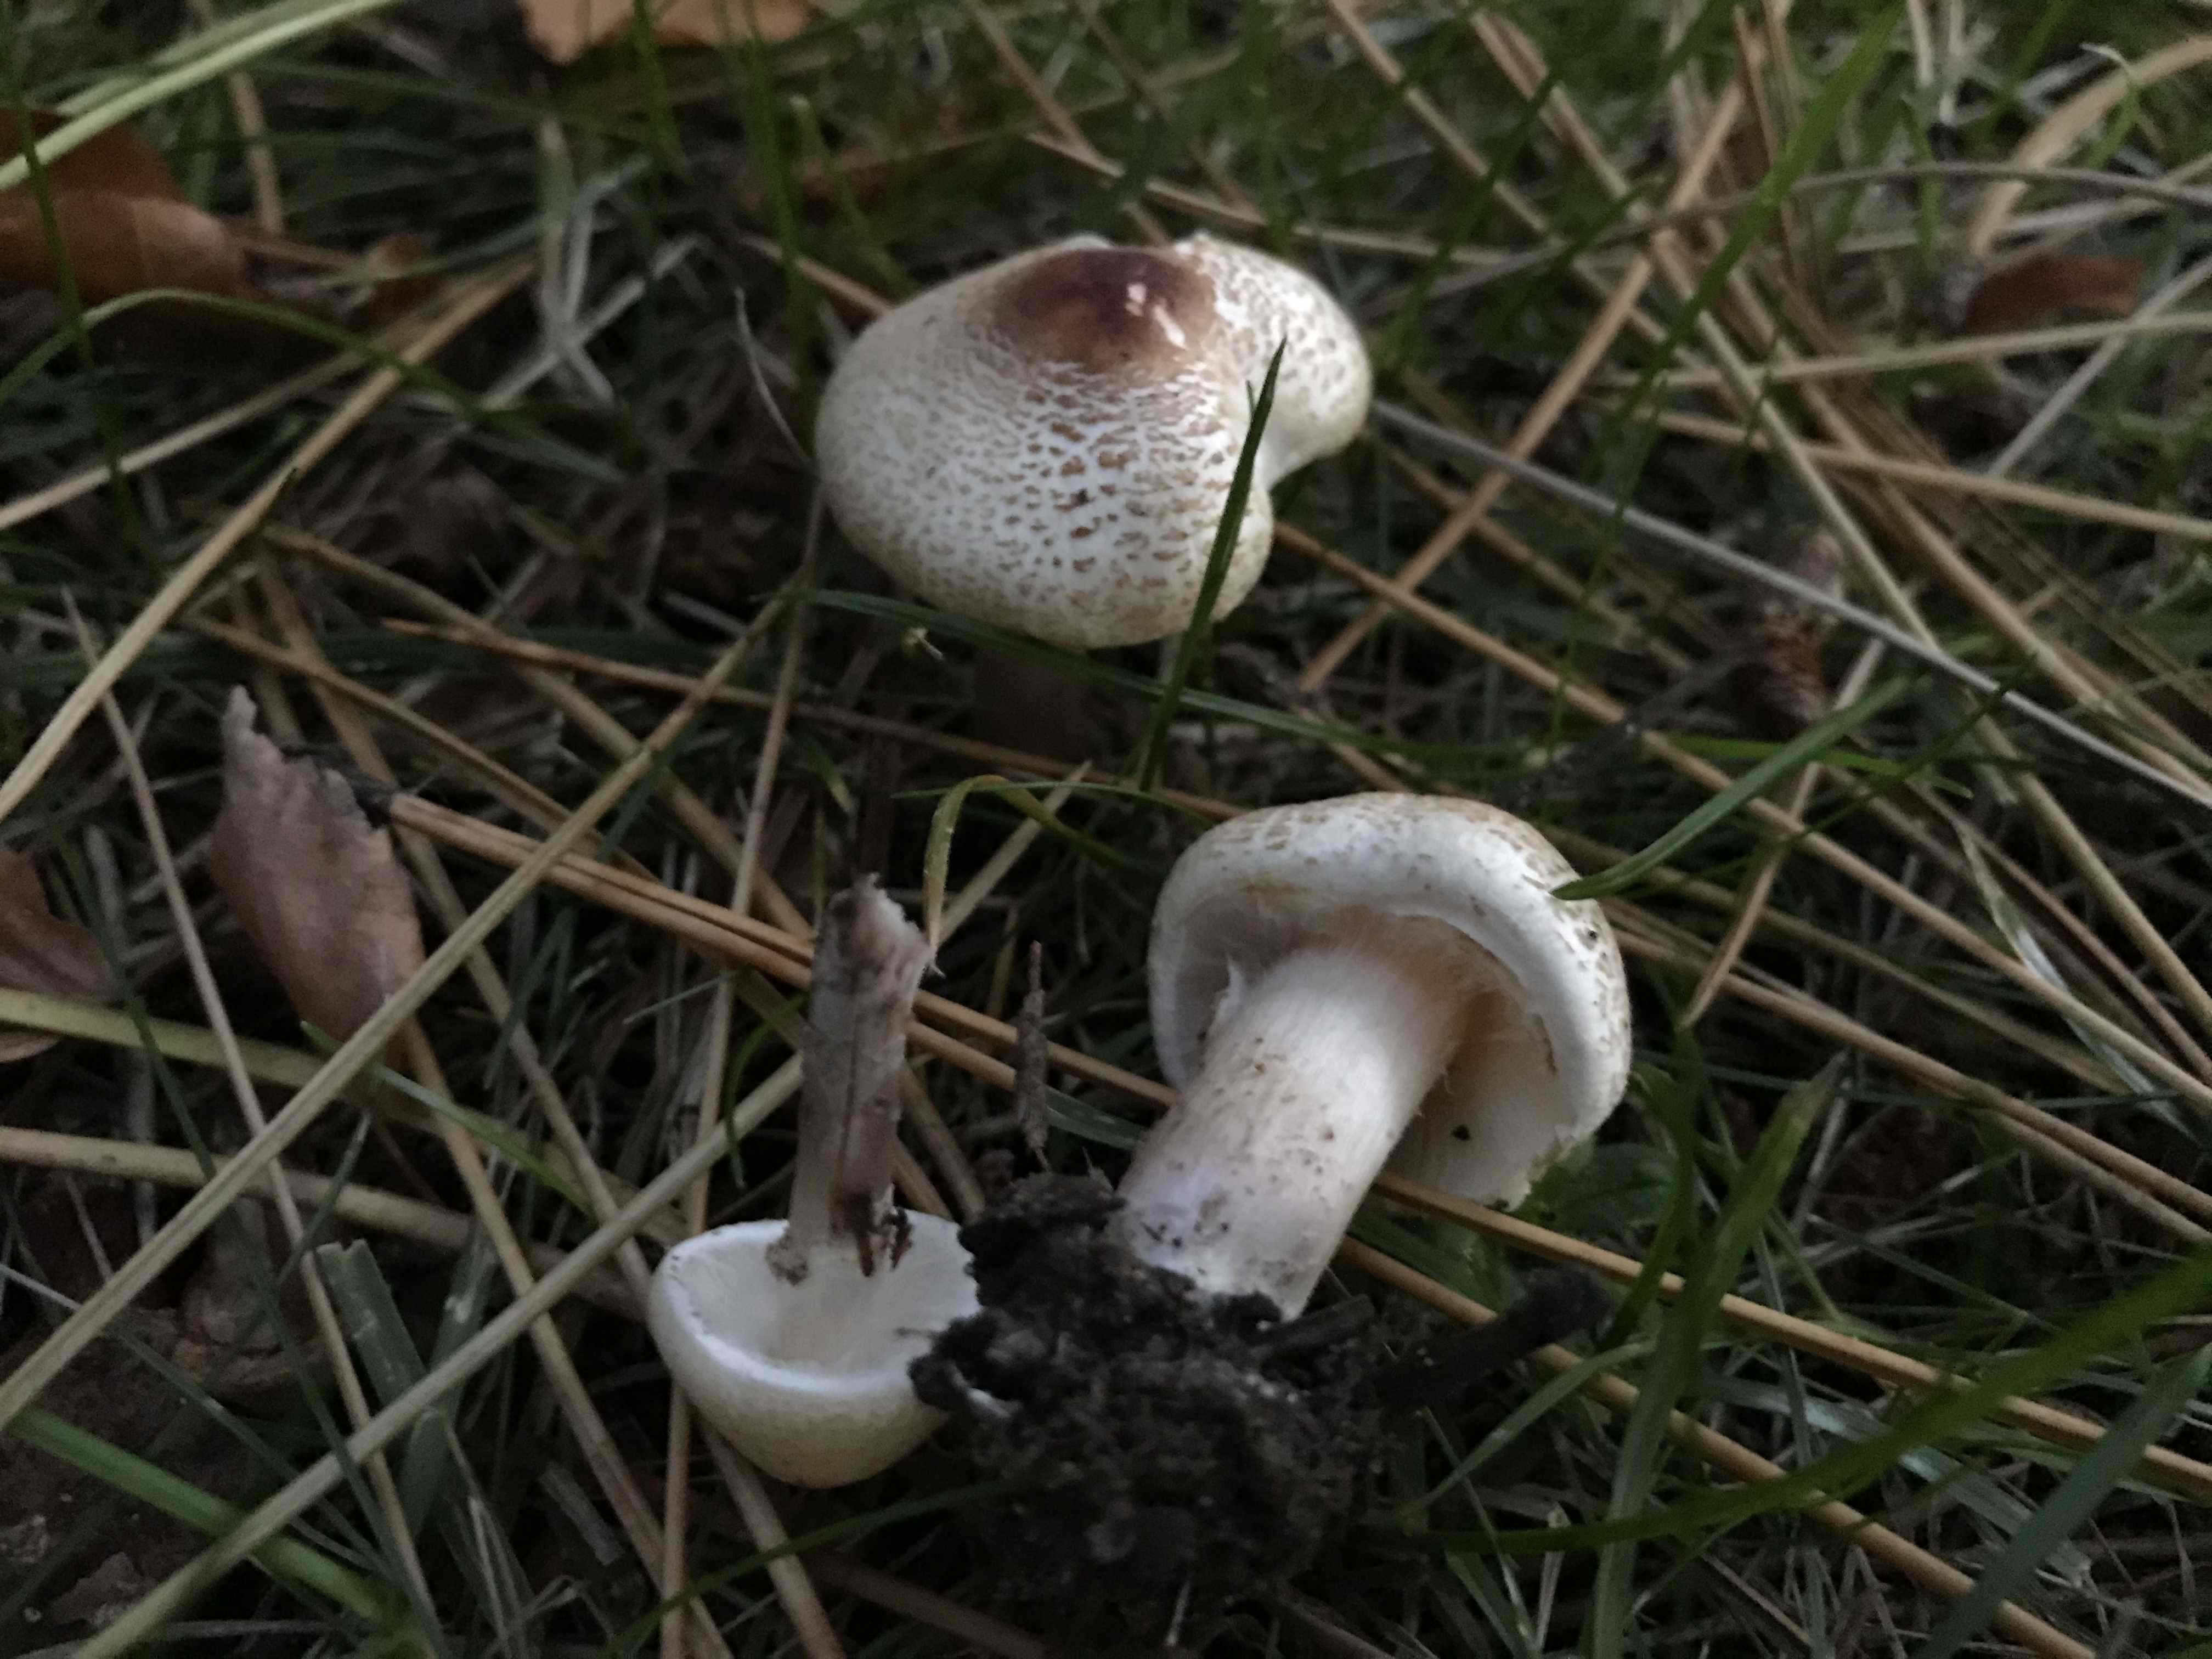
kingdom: Fungi
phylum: Basidiomycota
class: Agaricomycetes
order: Agaricales
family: Agaricaceae
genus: Lepiota
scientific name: Lepiota cristata
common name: stinkende parasolhat
